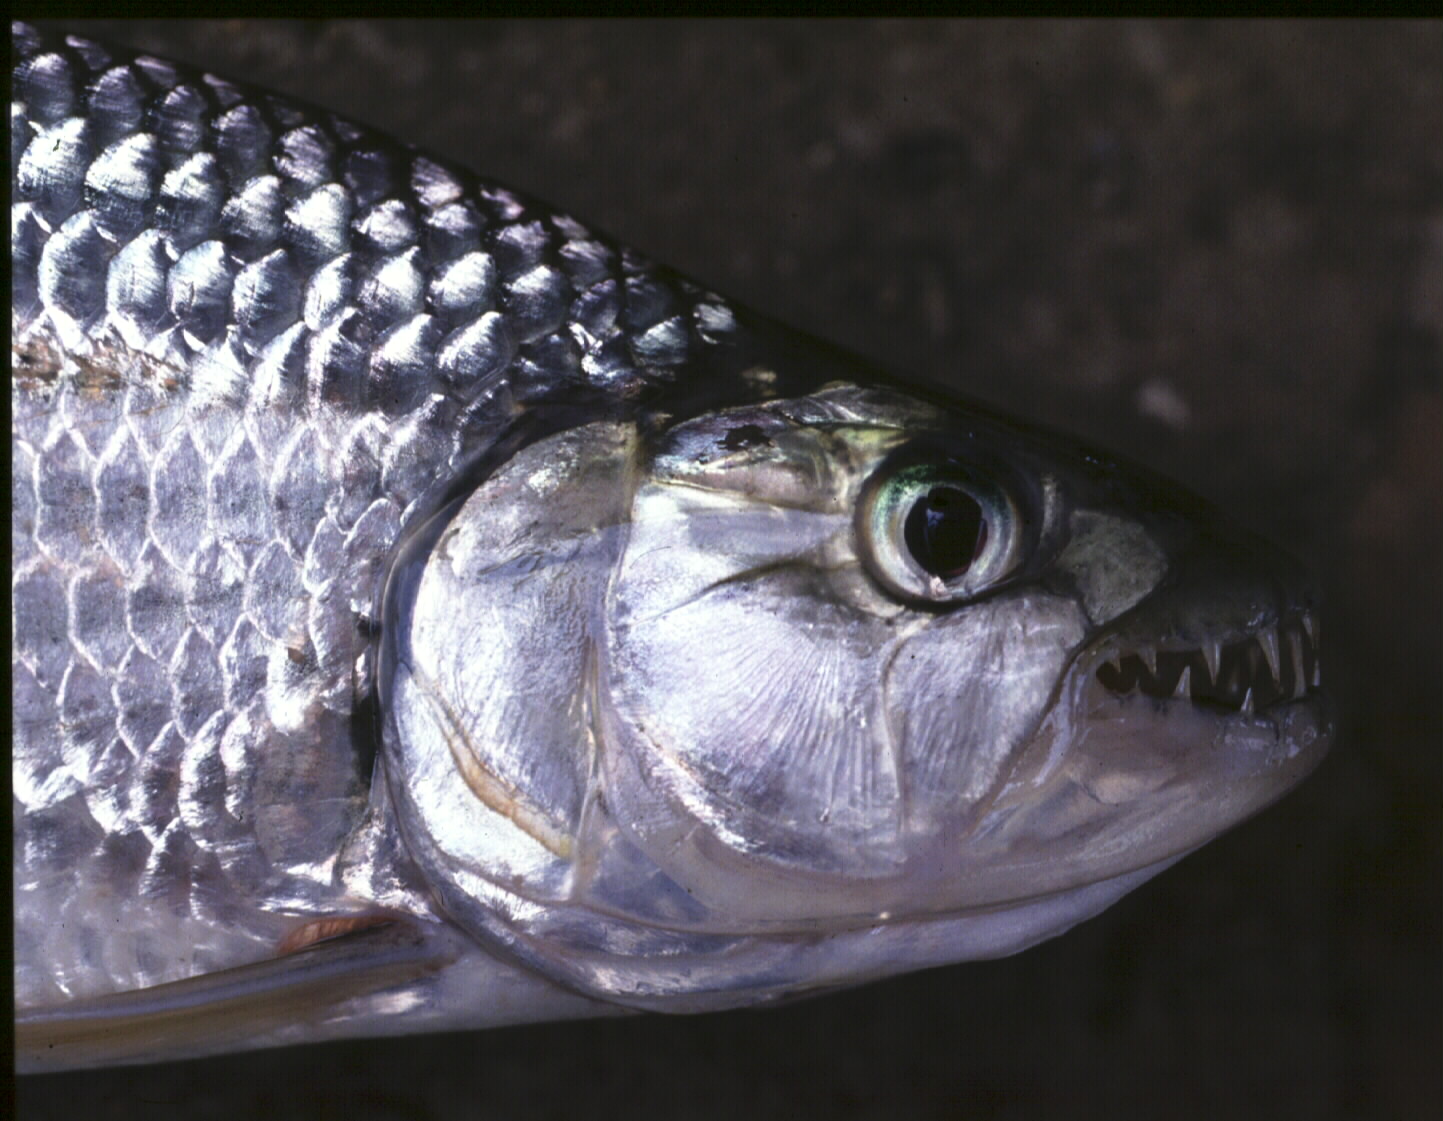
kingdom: Animalia
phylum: Chordata
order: Characiformes
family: Alestidae
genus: Hydrocynus
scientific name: Hydrocynus vittatus
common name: Tigerfish
